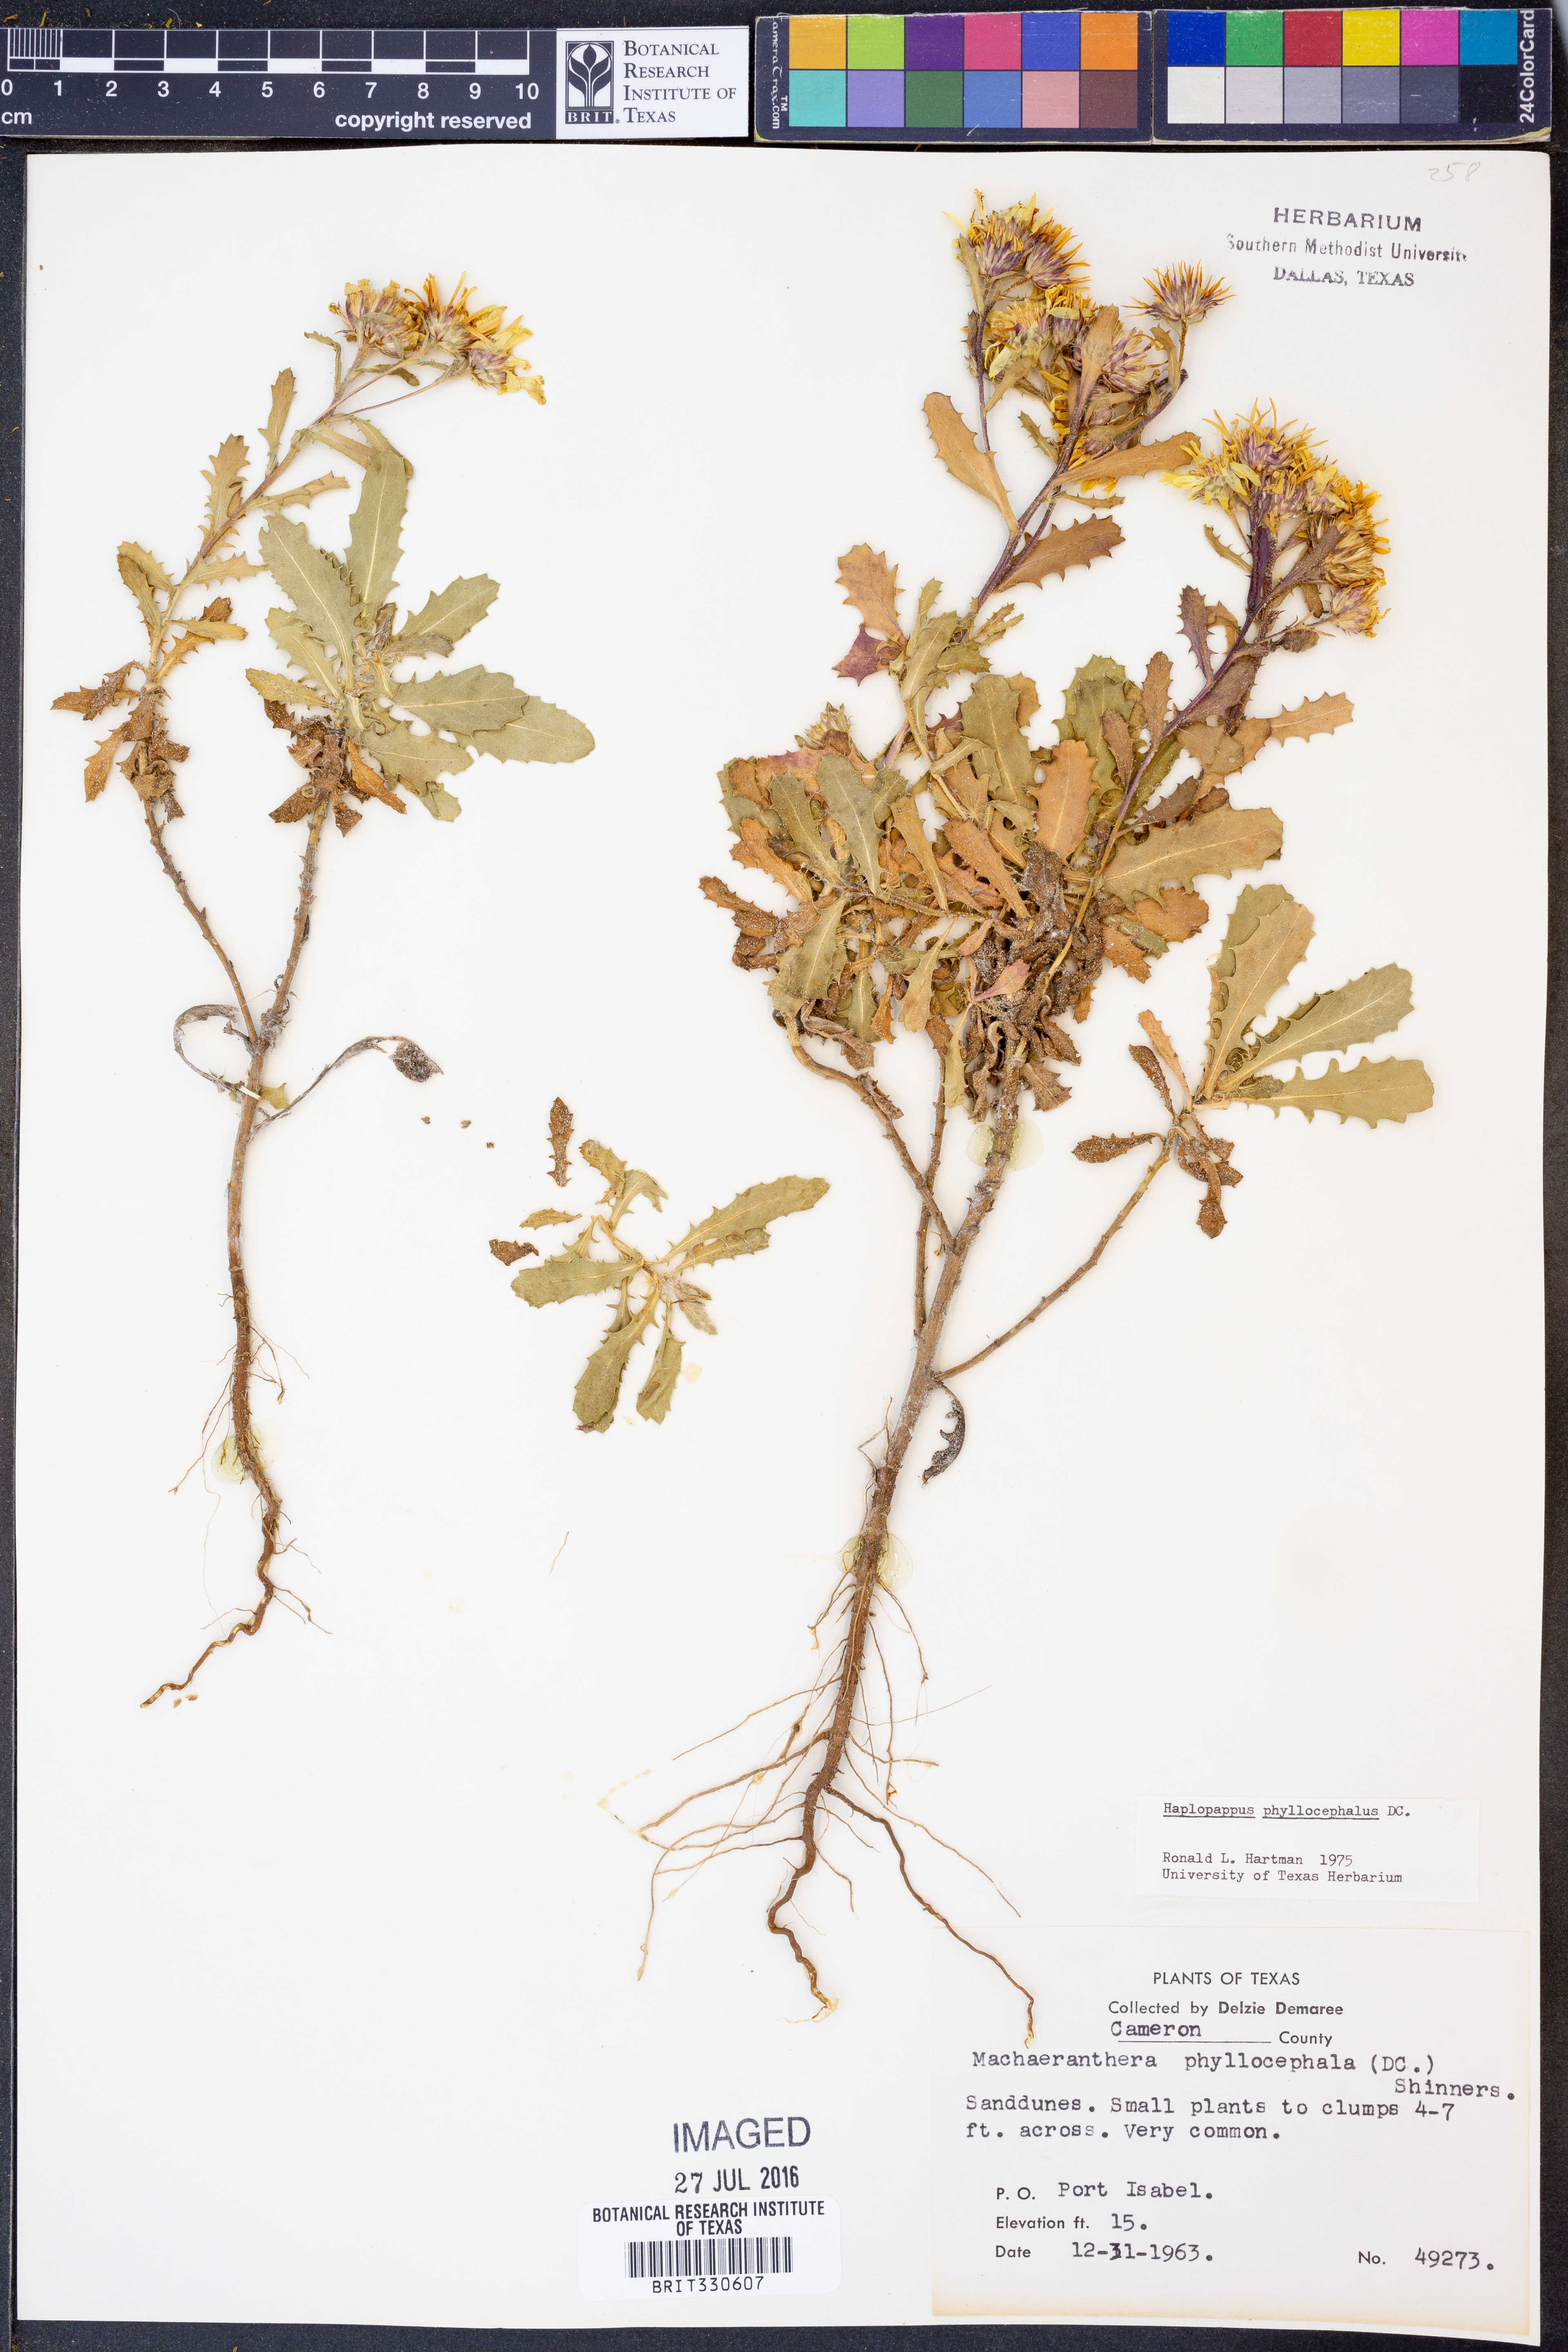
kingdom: Plantae
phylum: Tracheophyta
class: Magnoliopsida
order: Asterales
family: Asteraceae
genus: Rayjacksonia
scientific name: Rayjacksonia phyllocephala
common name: Gulf coast camphor daisy
